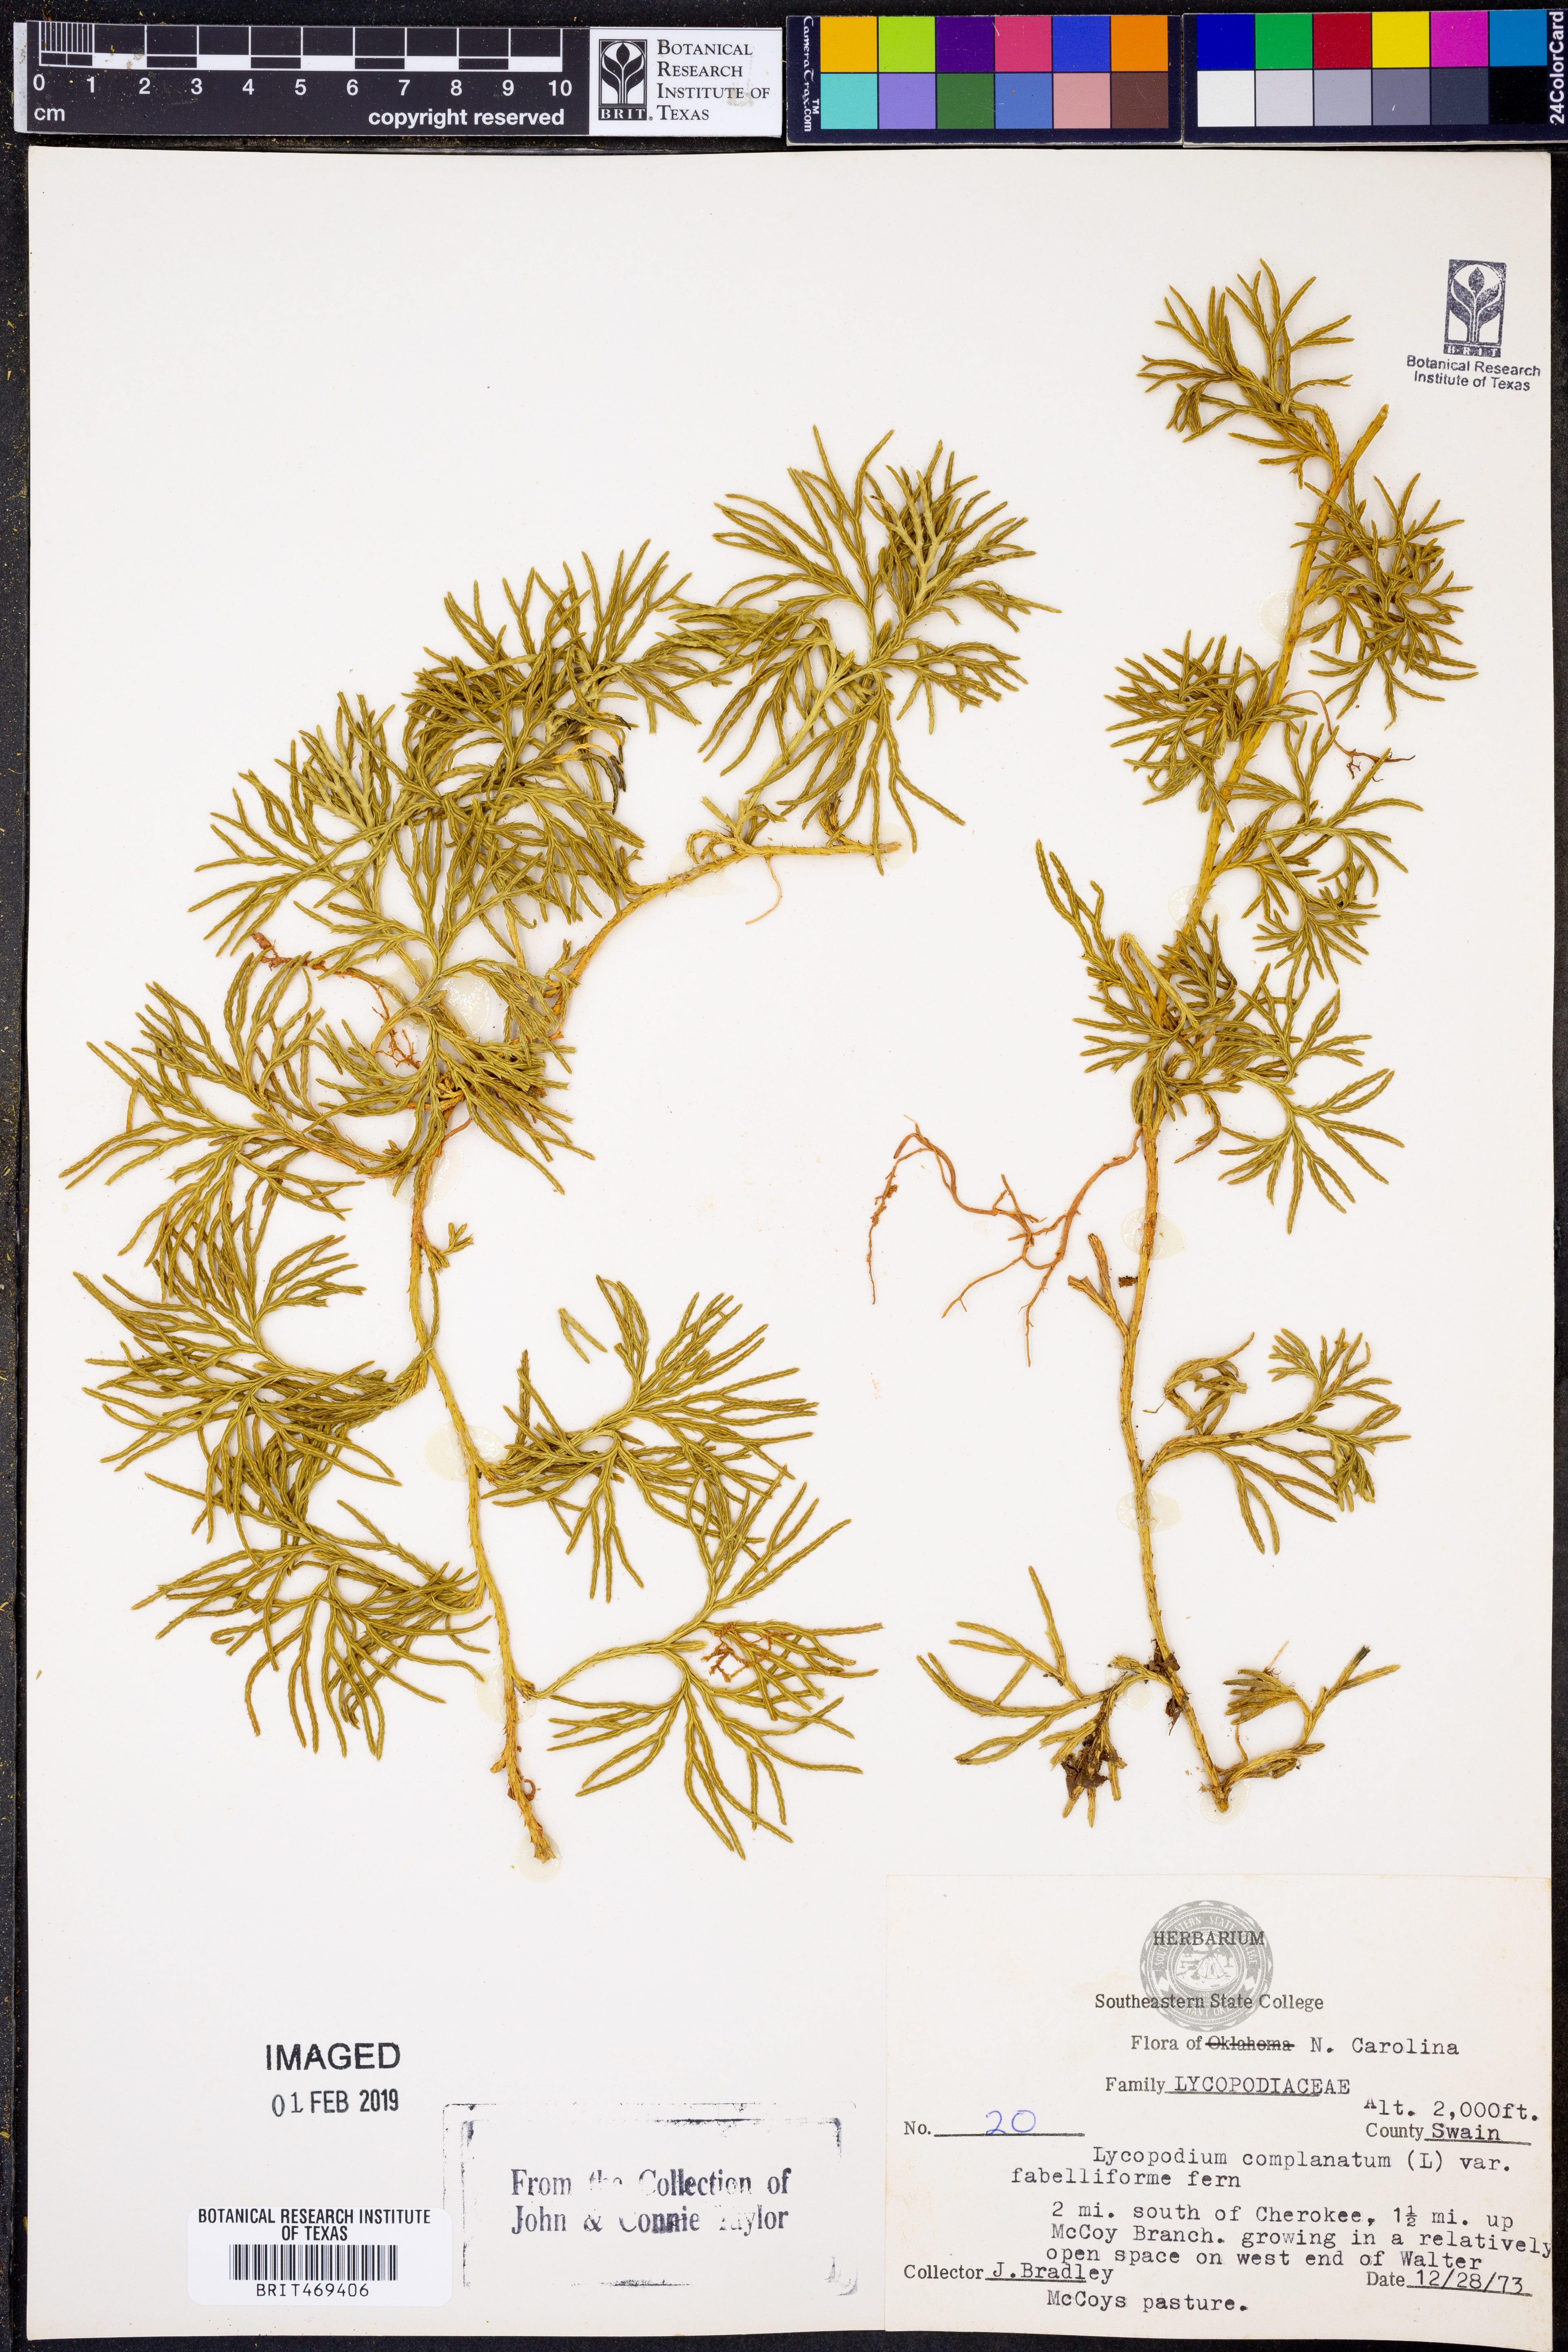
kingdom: Plantae
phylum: Tracheophyta
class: Lycopodiopsida
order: Lycopodiales
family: Lycopodiaceae
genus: Diphasiastrum
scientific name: Diphasiastrum digitatum
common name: Southern running-pine
